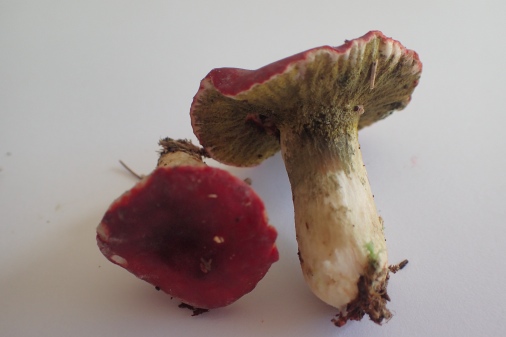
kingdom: Fungi
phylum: Ascomycota
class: Sordariomycetes
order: Hypocreales
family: Hypocreaceae
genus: Hypomyces
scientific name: Hypomyces luteovirens
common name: gulgrøn snylteskorpe
